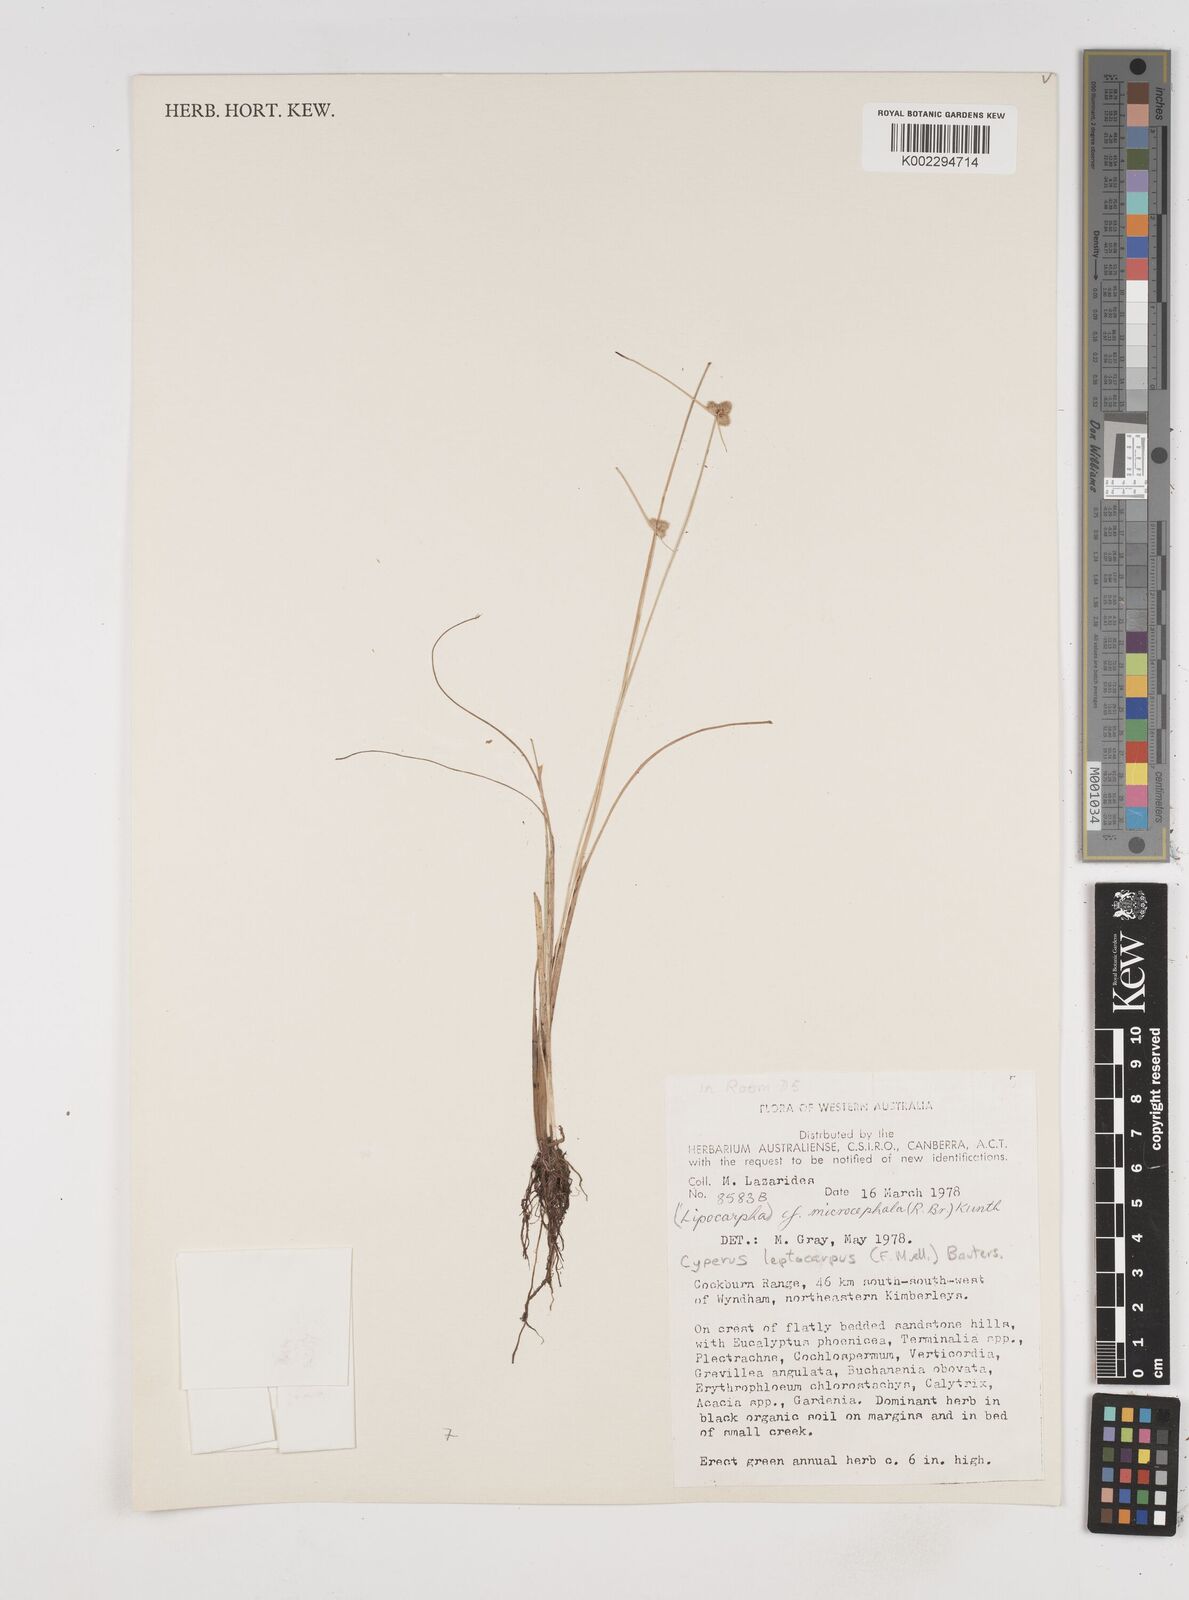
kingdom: Plantae
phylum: Tracheophyta
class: Liliopsida
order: Poales
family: Cyperaceae
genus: Cyperus
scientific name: Cyperus leptocarpus
